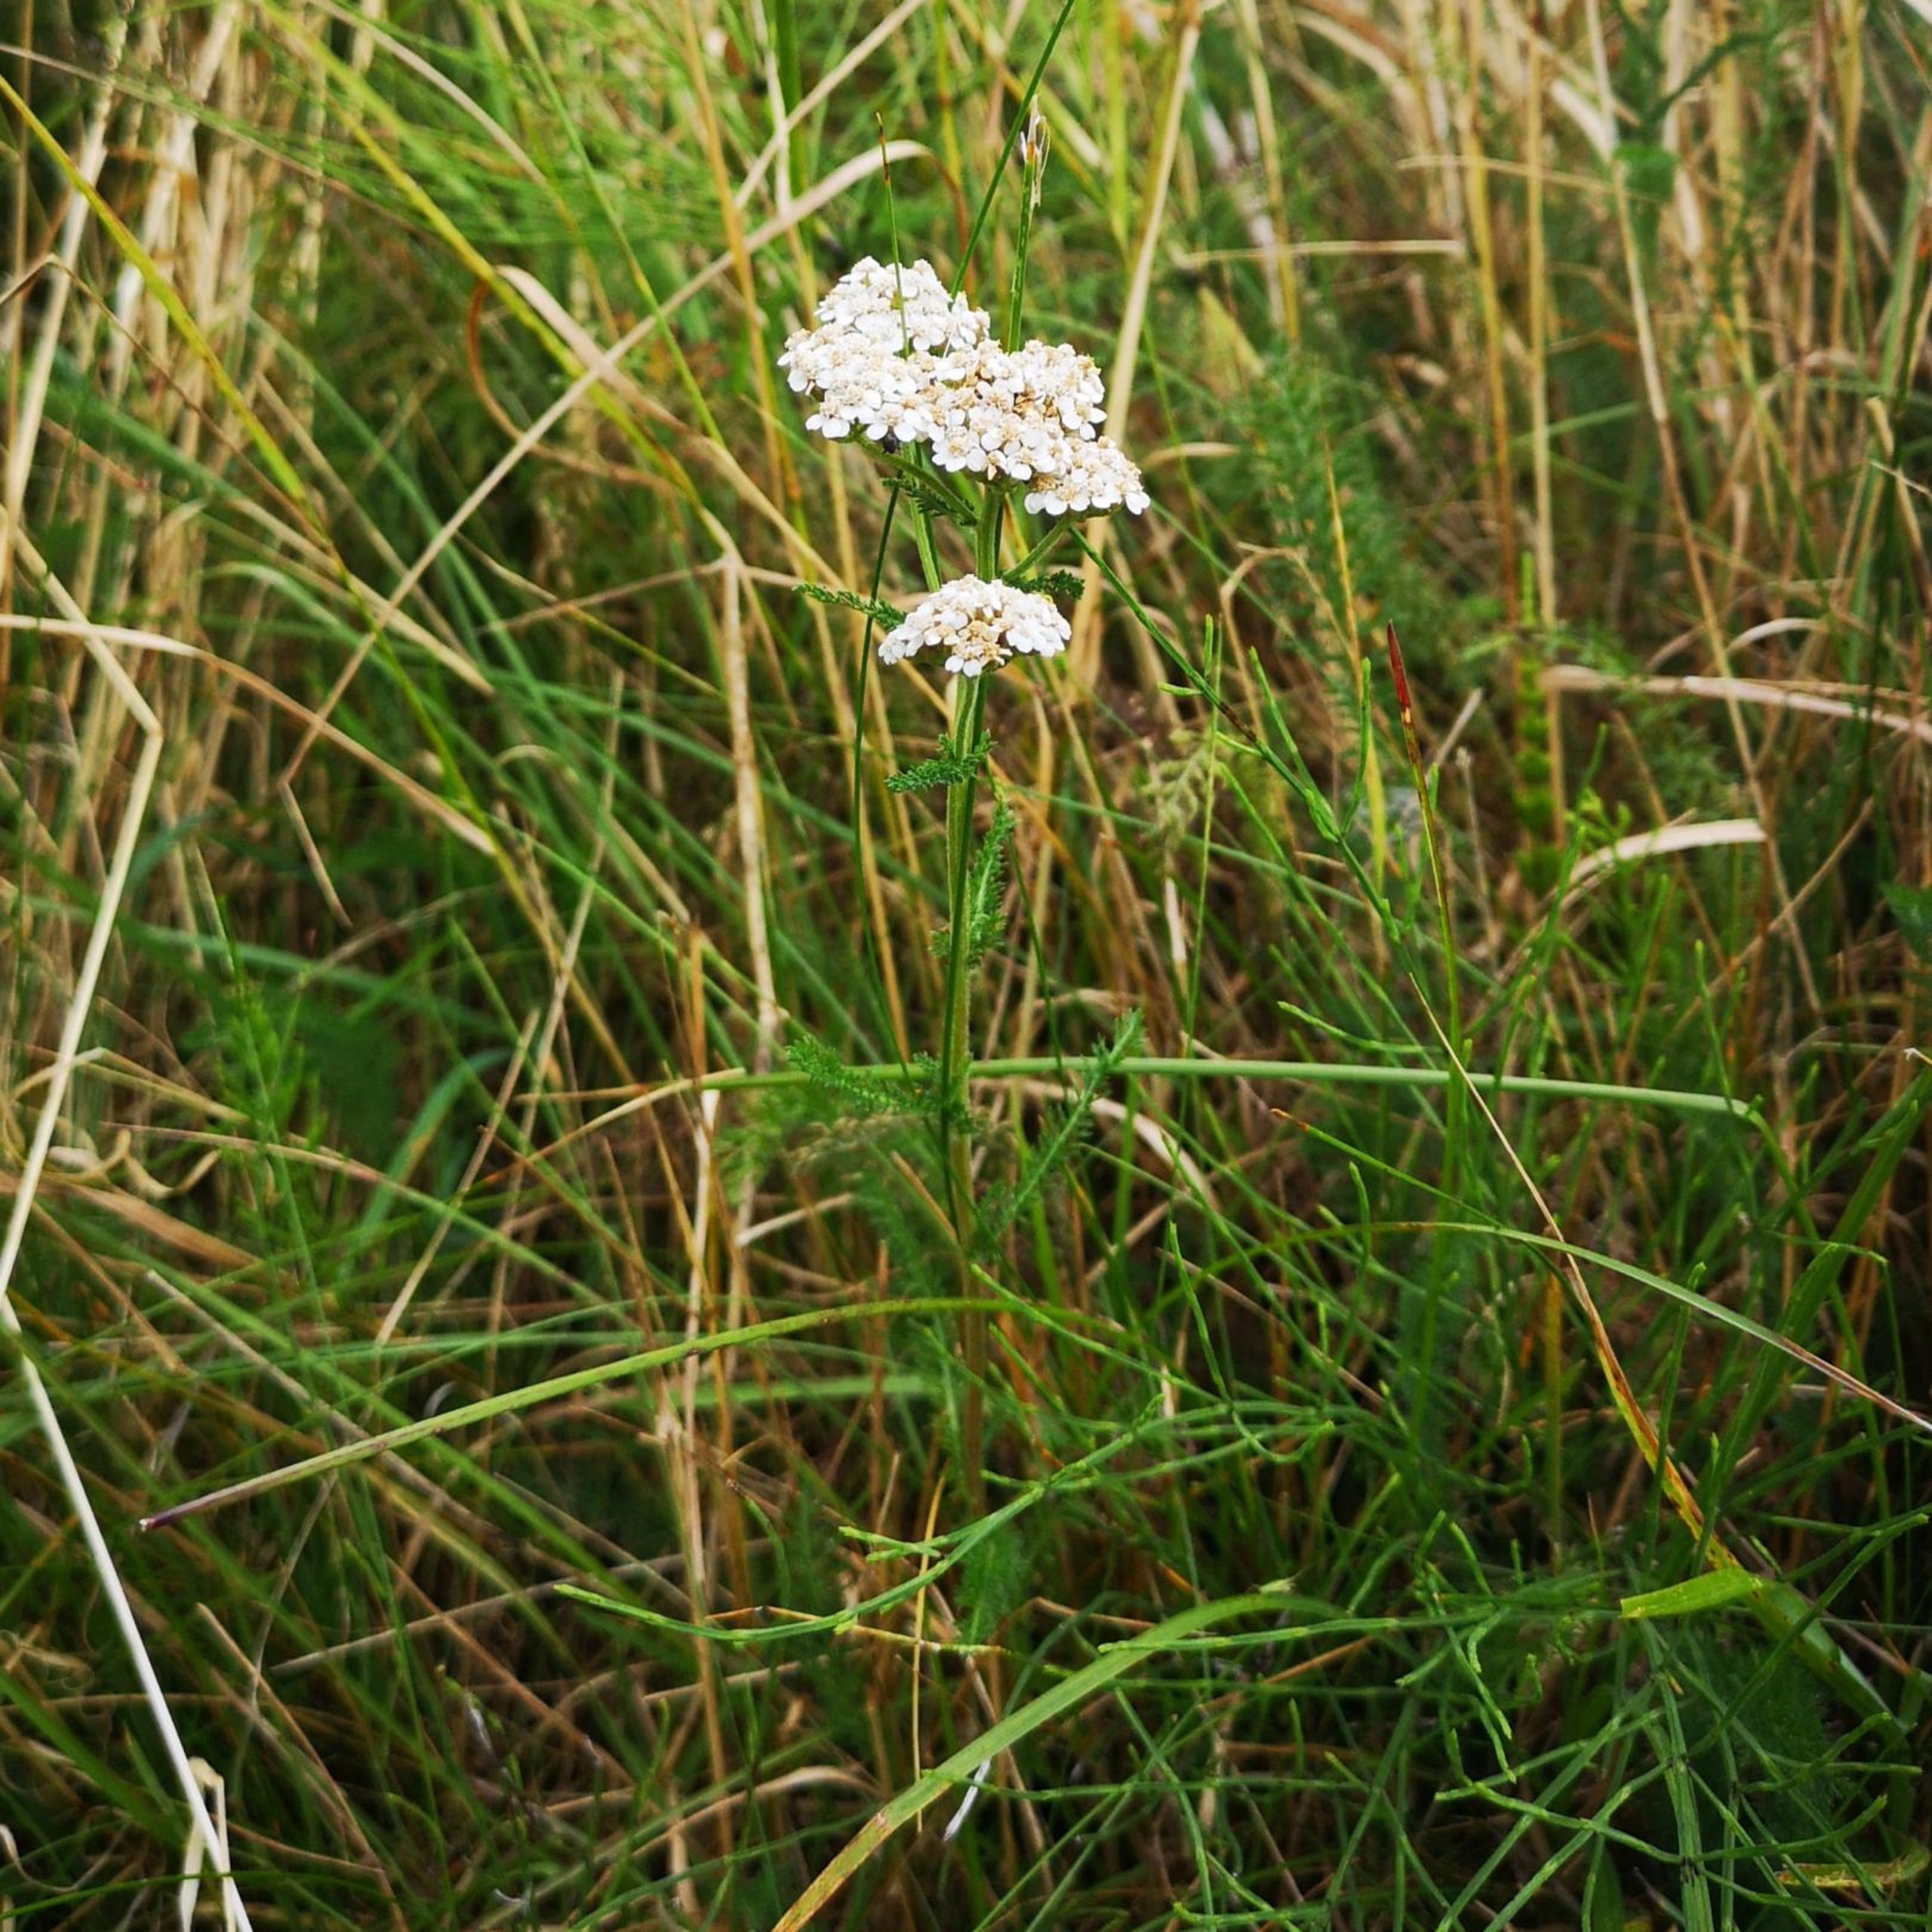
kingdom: Plantae
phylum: Tracheophyta
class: Magnoliopsida
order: Asterales
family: Asteraceae
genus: Achillea
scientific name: Achillea millefolium
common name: Almindelig røllike
